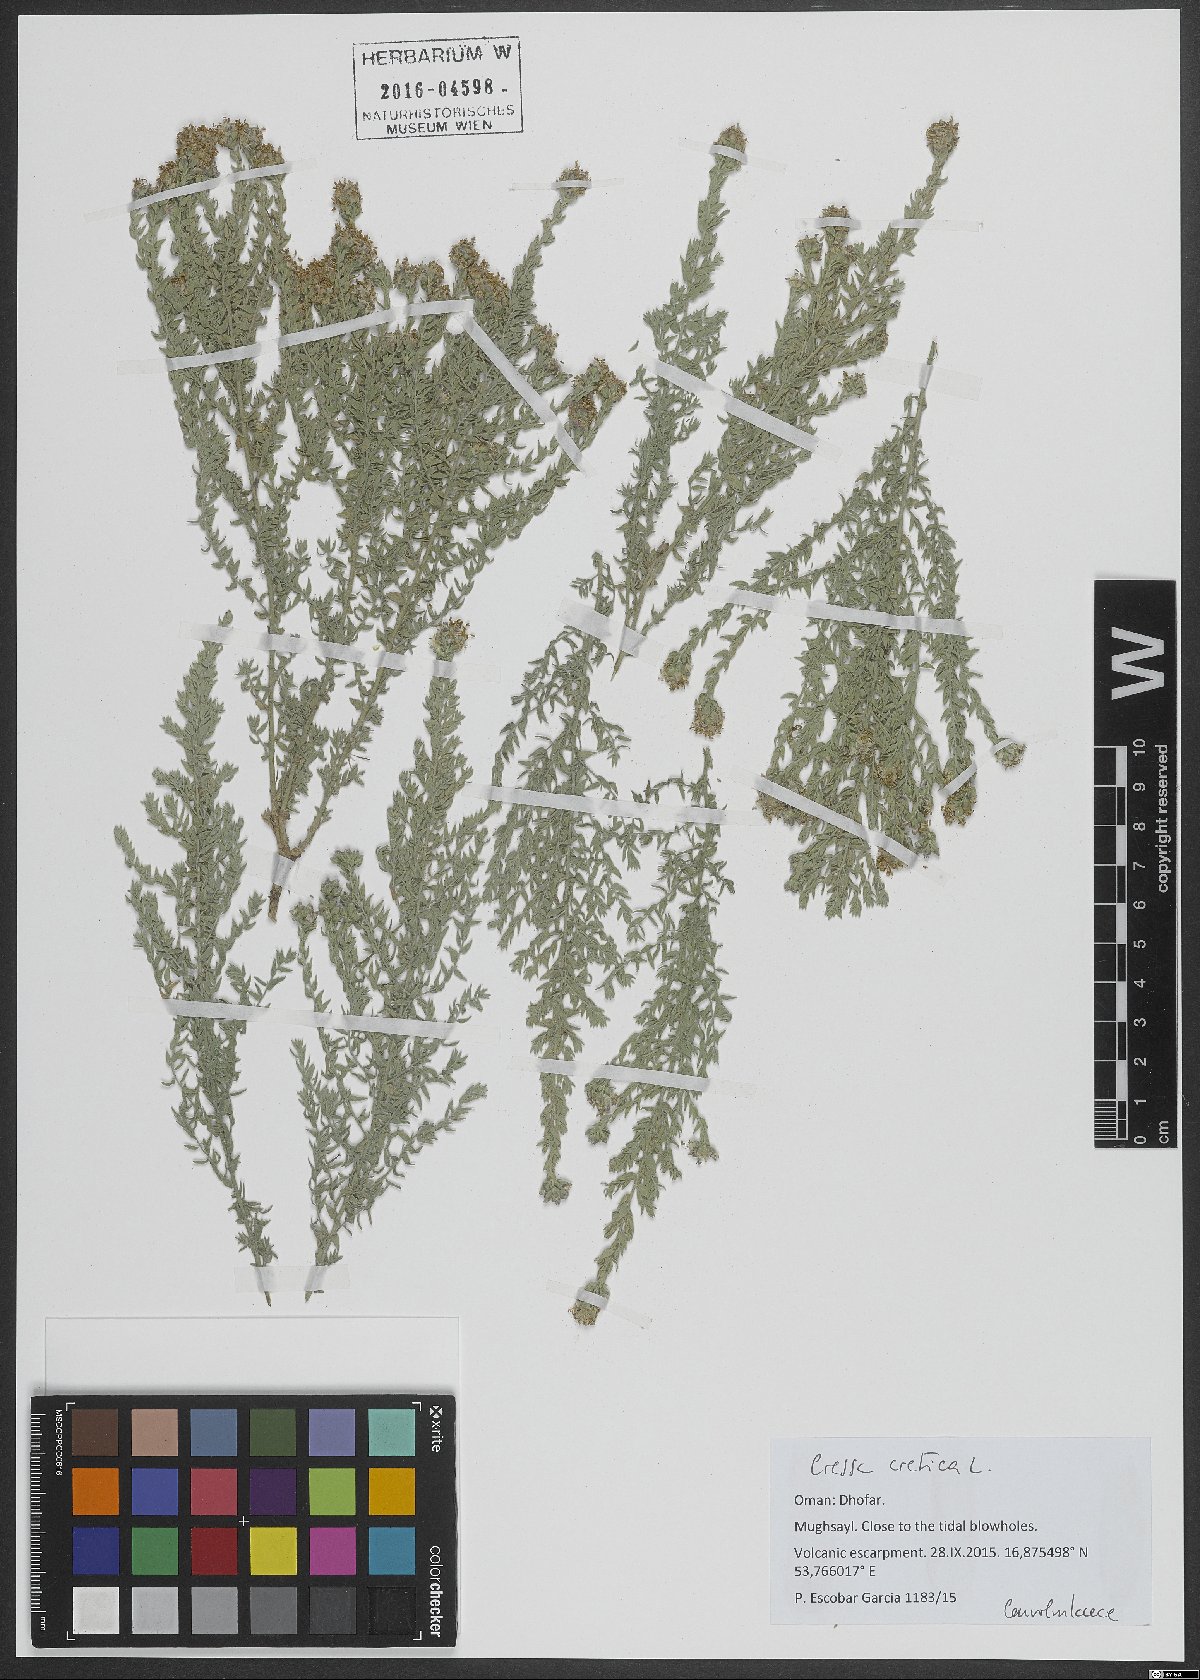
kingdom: Plantae
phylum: Tracheophyta
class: Magnoliopsida
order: Solanales
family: Convolvulaceae
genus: Cressa
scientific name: Cressa cretica
